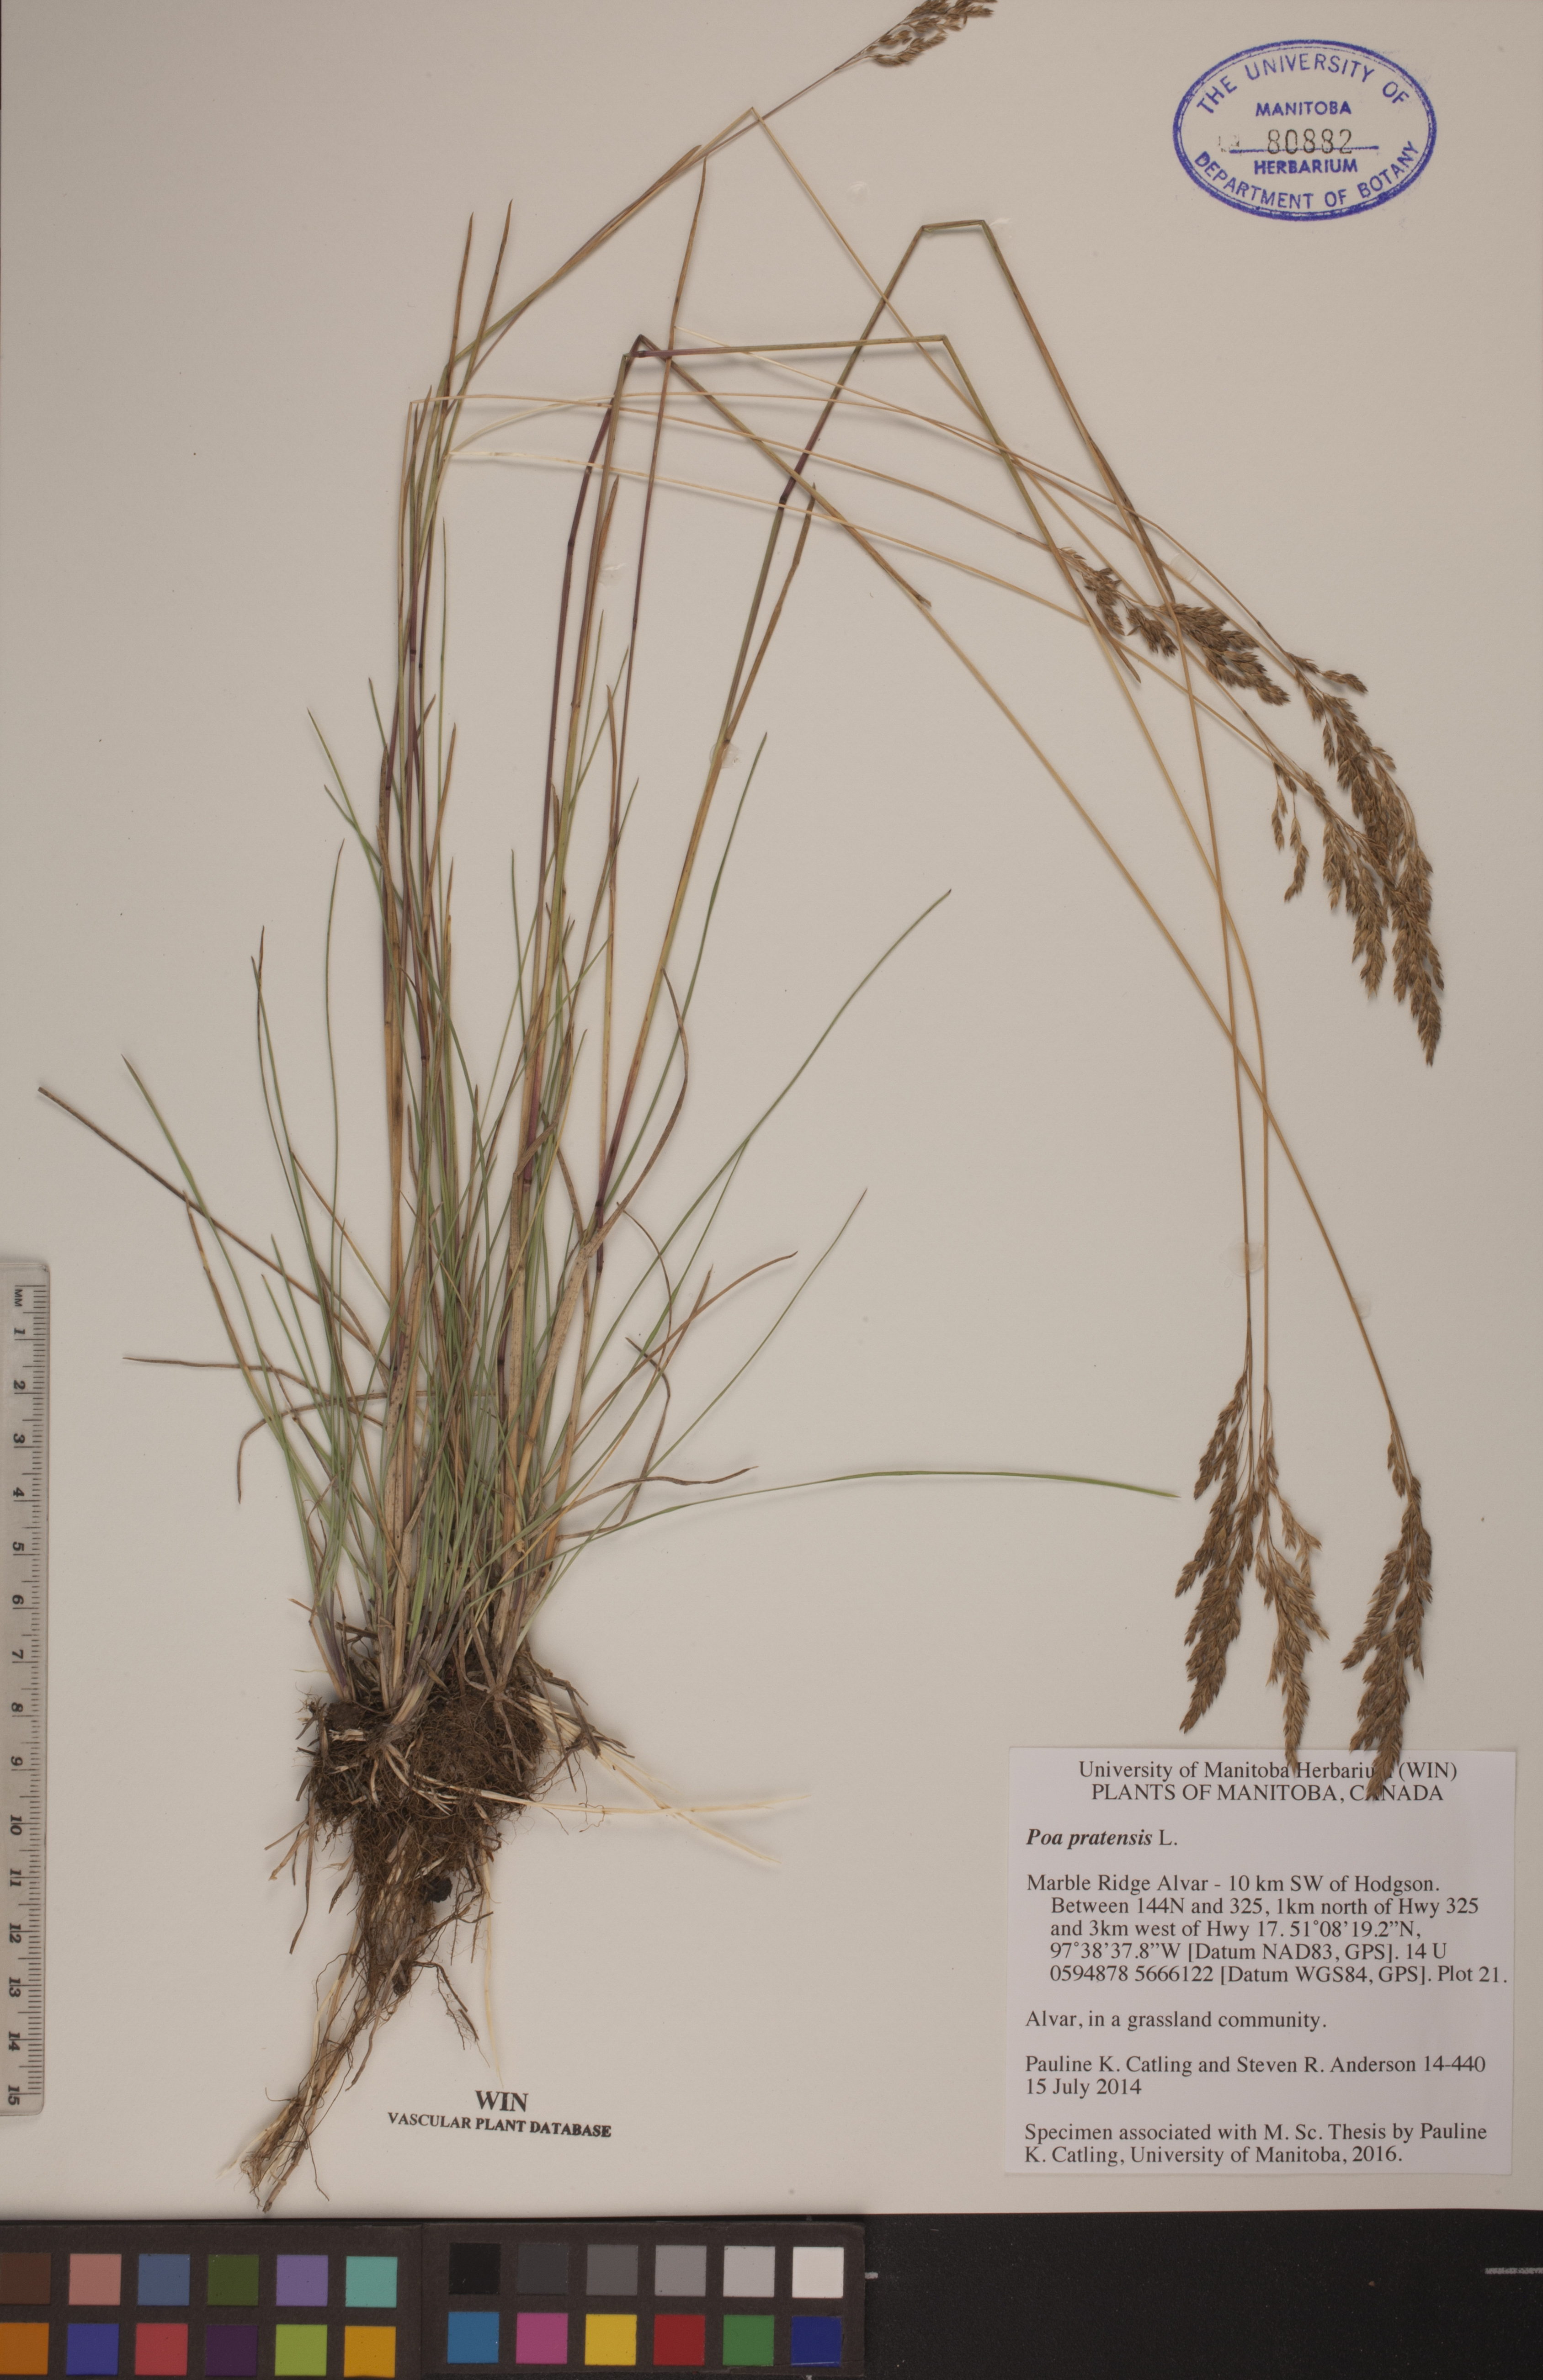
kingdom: Plantae
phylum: Tracheophyta
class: Liliopsida
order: Poales
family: Poaceae
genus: Poa
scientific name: Poa pratensis
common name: Kentucky bluegrass
